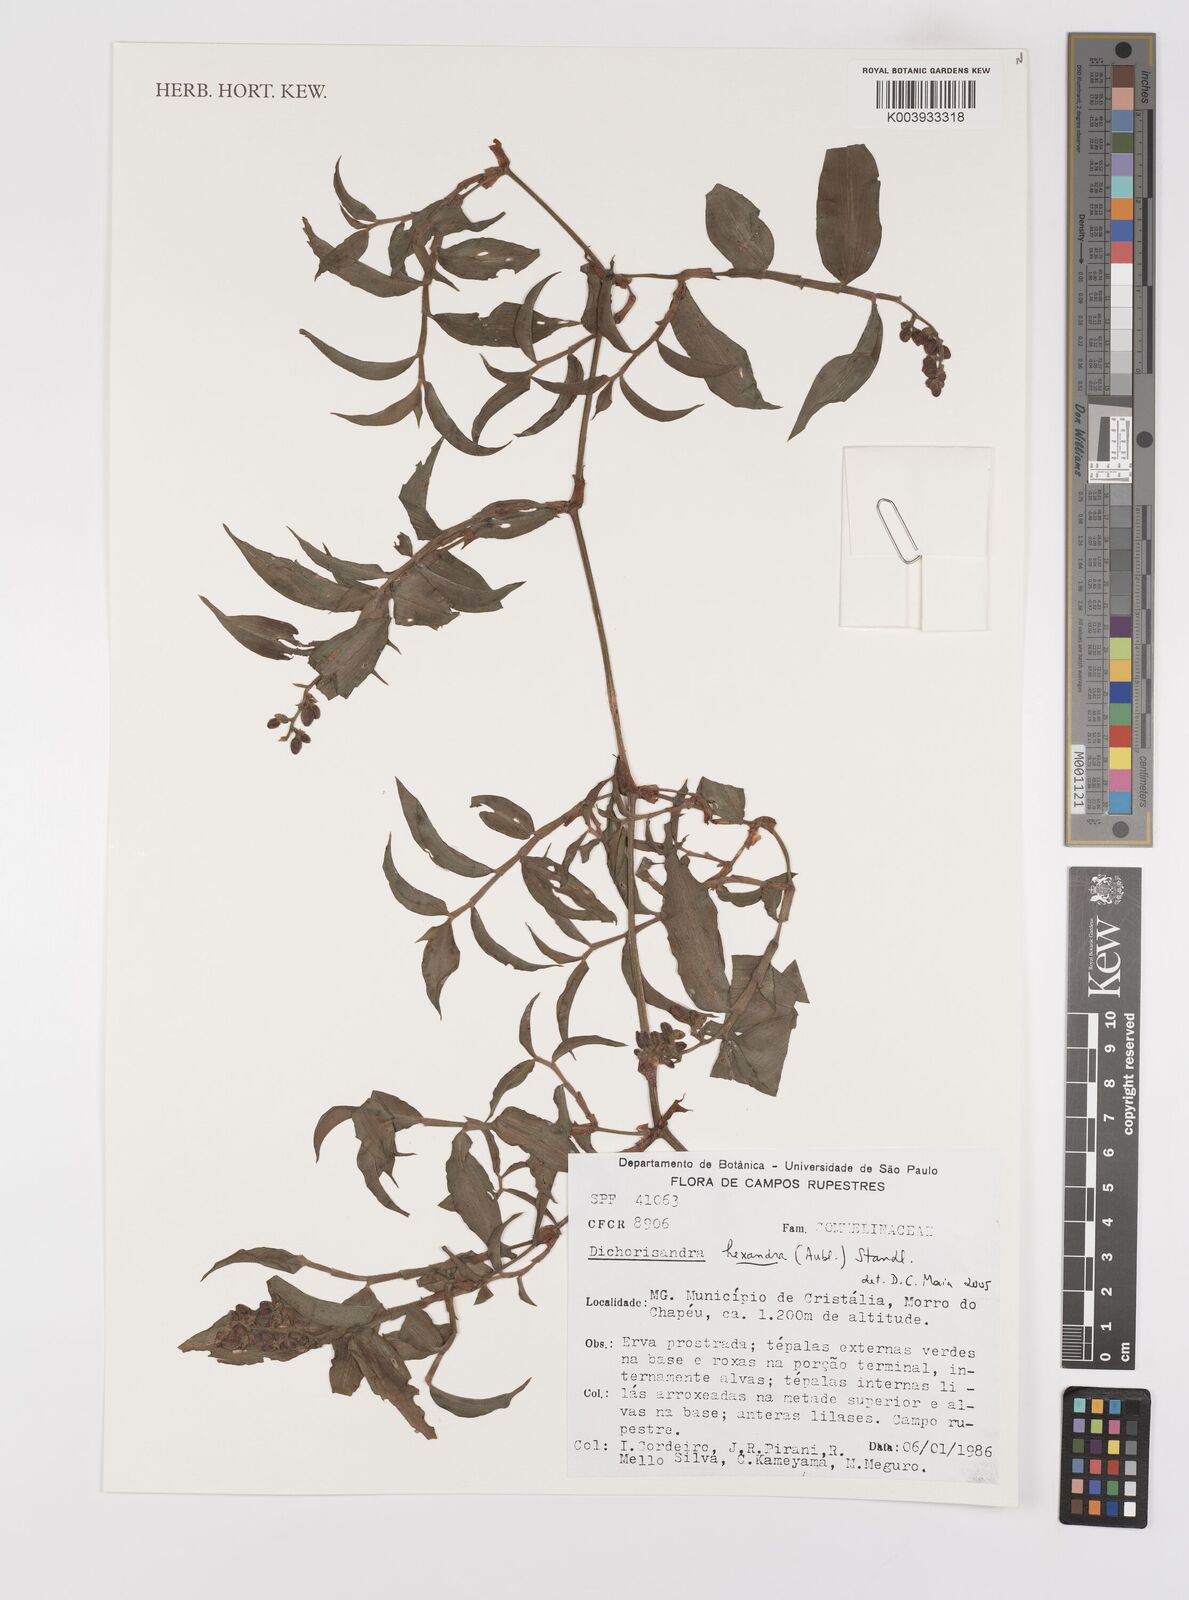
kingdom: Plantae
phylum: Tracheophyta
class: Liliopsida
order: Commelinales
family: Commelinaceae
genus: Dichorisandra
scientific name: Dichorisandra hexandra
